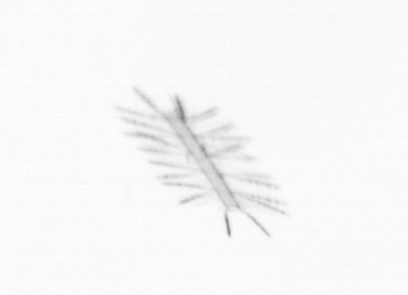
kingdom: Chromista
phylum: Ochrophyta
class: Bacillariophyceae
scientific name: Bacillariophyceae
